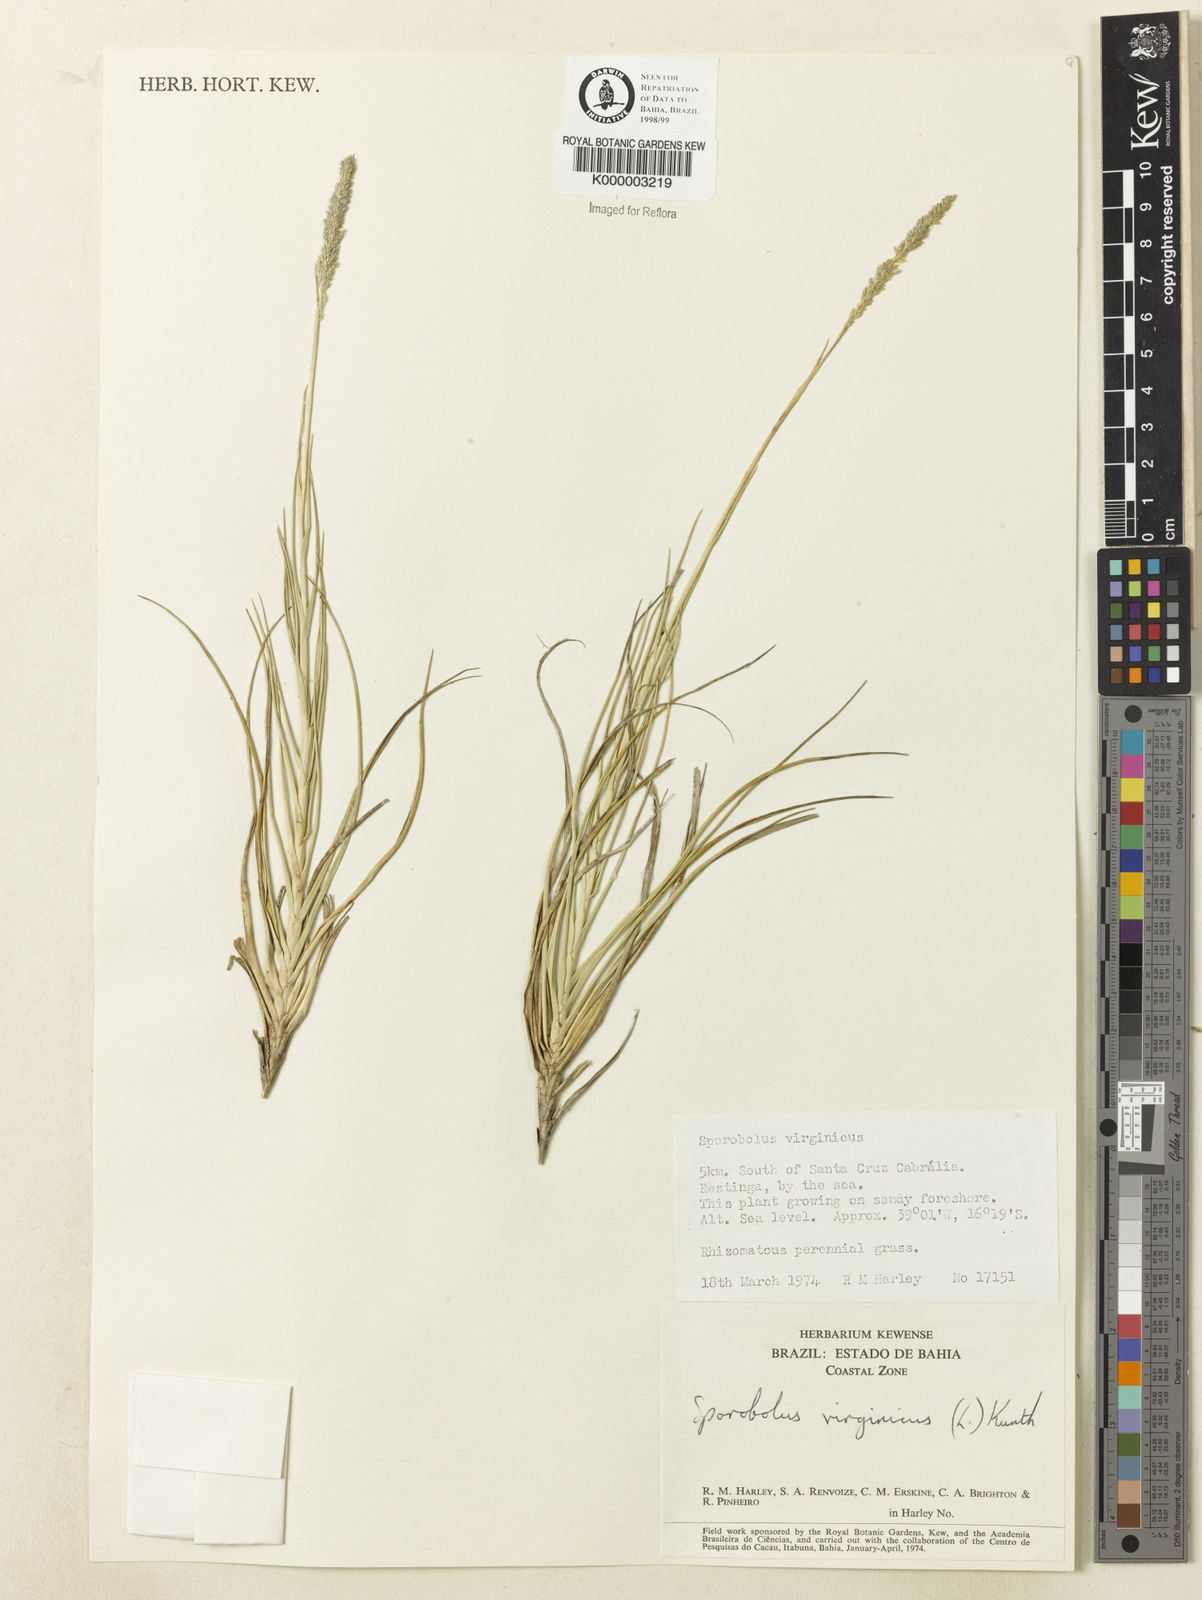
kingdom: Plantae
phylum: Tracheophyta
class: Liliopsida
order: Poales
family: Poaceae
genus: Sporobolus
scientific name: Sporobolus virginicus
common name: Beach dropseed
